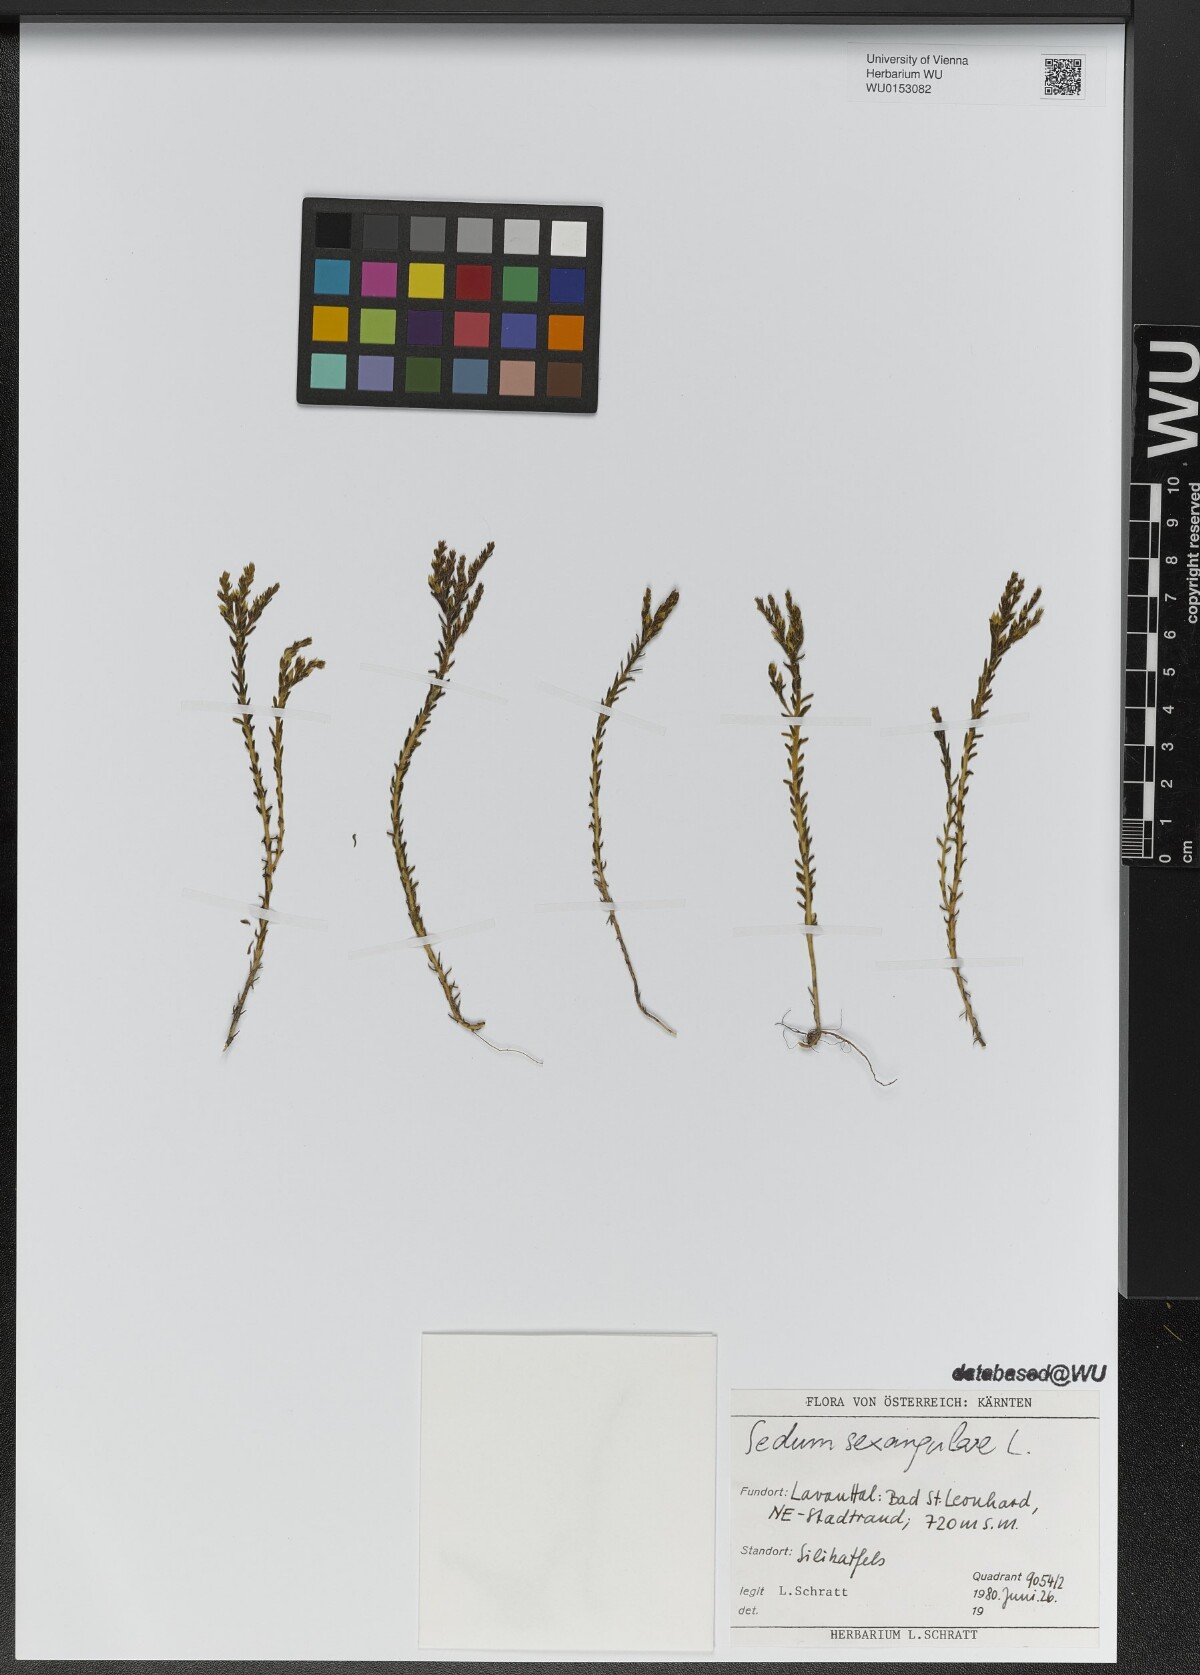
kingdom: Plantae
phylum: Tracheophyta
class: Magnoliopsida
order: Saxifragales
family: Crassulaceae
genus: Sedum
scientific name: Sedum sexangulare
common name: Tasteless stonecrop
